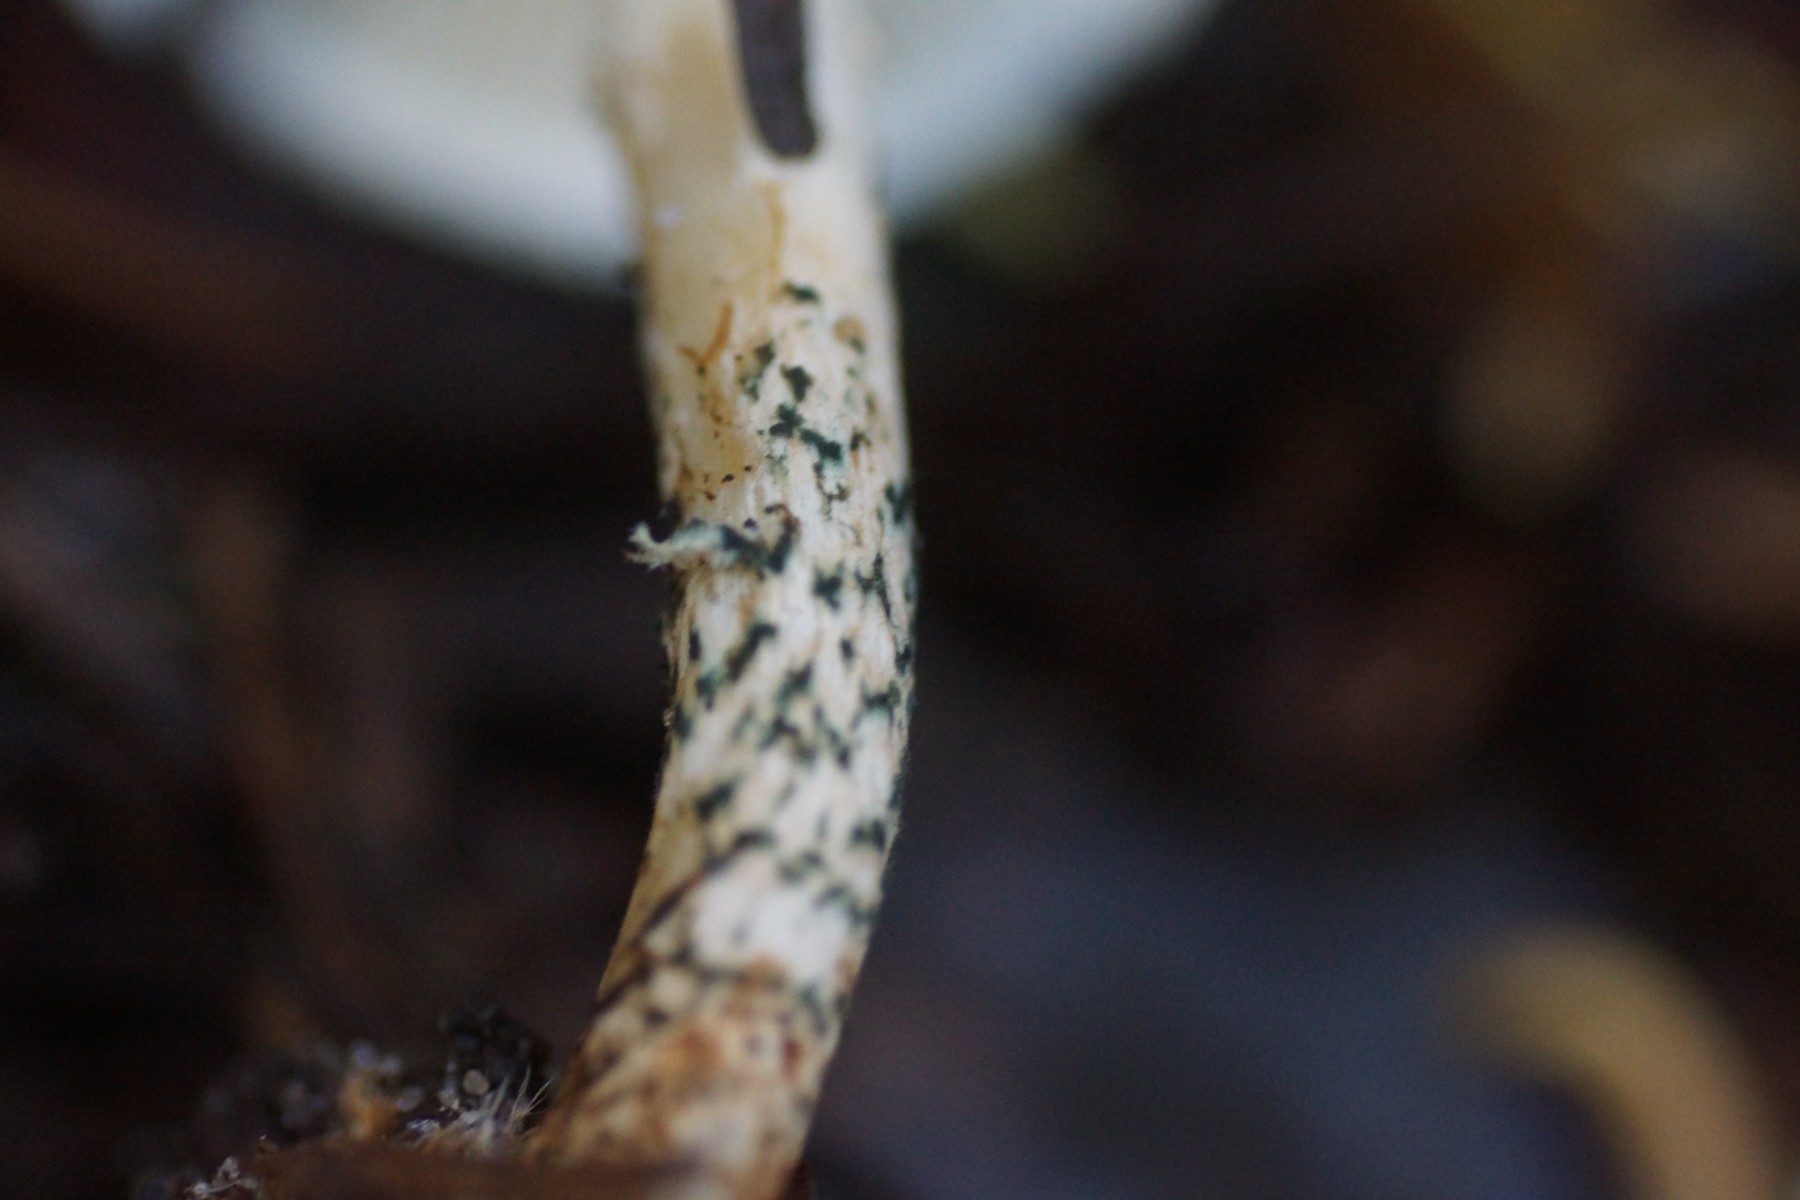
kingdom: Fungi
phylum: Basidiomycota
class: Agaricomycetes
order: Agaricales
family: Agaricaceae
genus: Lepiota
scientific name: Lepiota grangei
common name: grønskællet parasolhat
